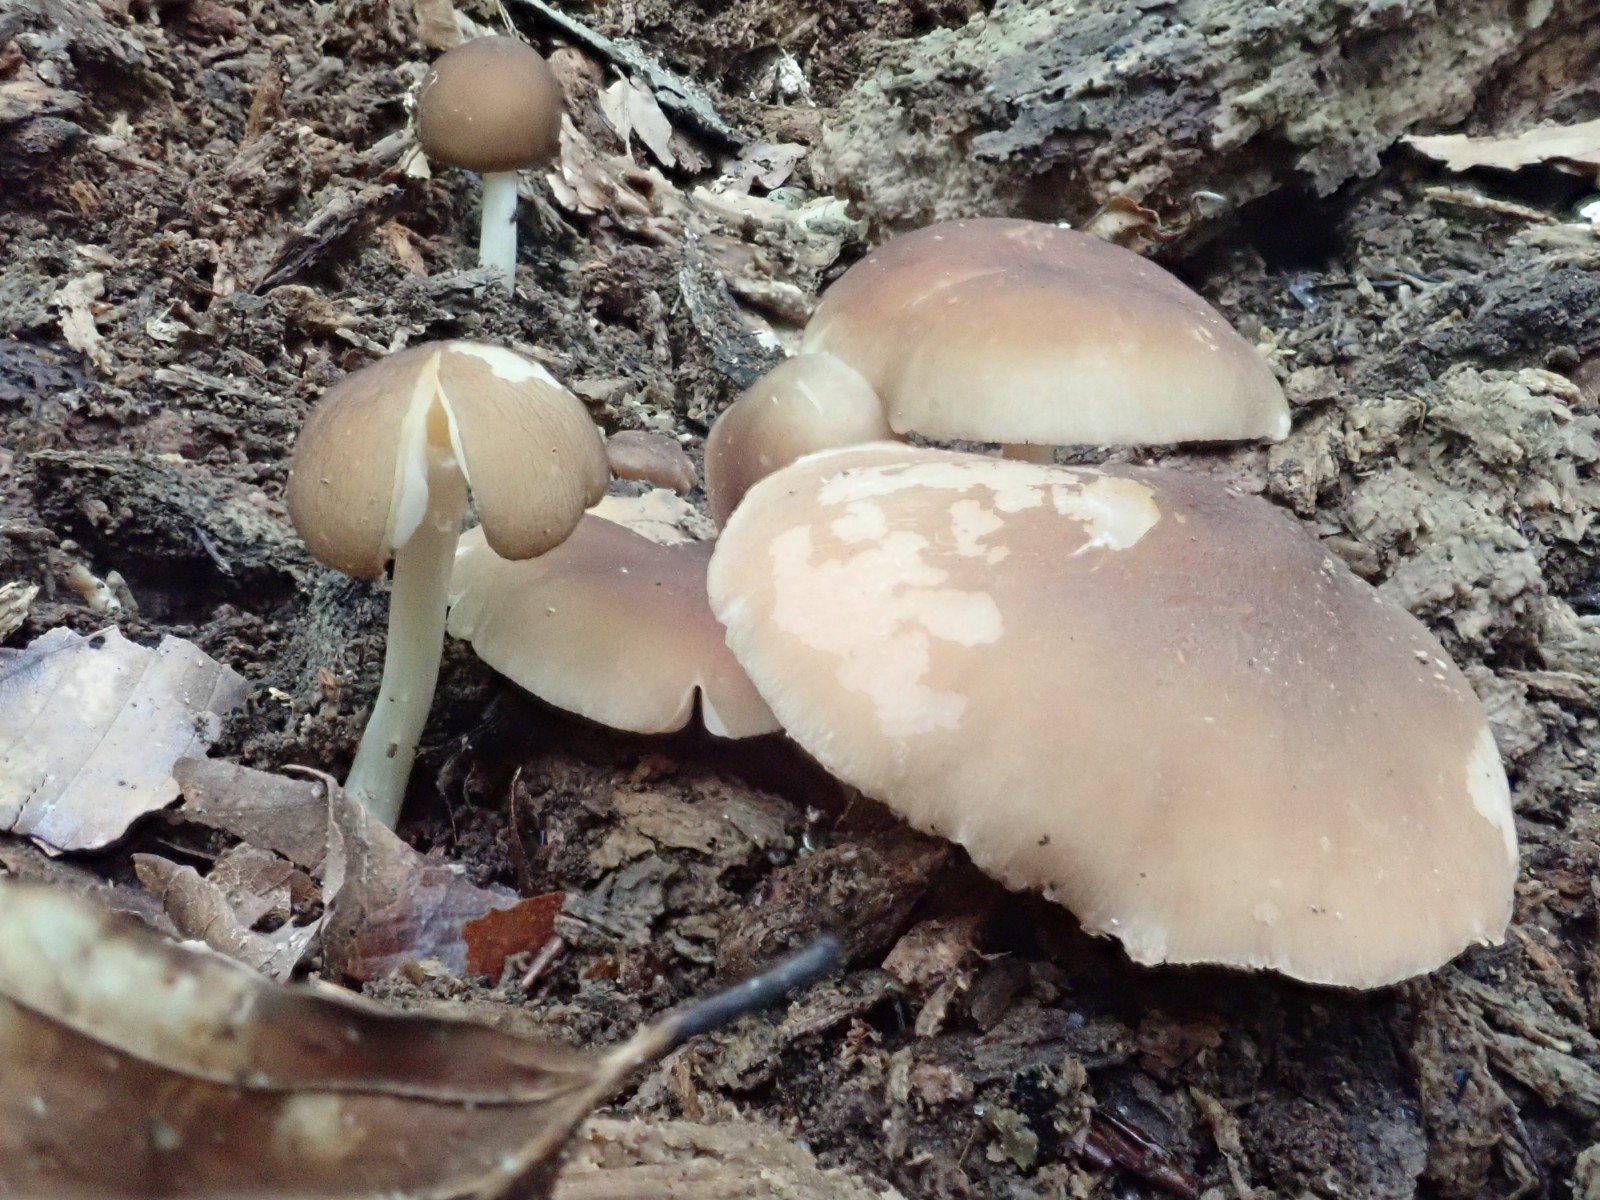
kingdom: Fungi
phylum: Basidiomycota
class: Agaricomycetes
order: Agaricales
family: Pluteaceae
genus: Pluteus
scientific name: Pluteus phlebophorus
